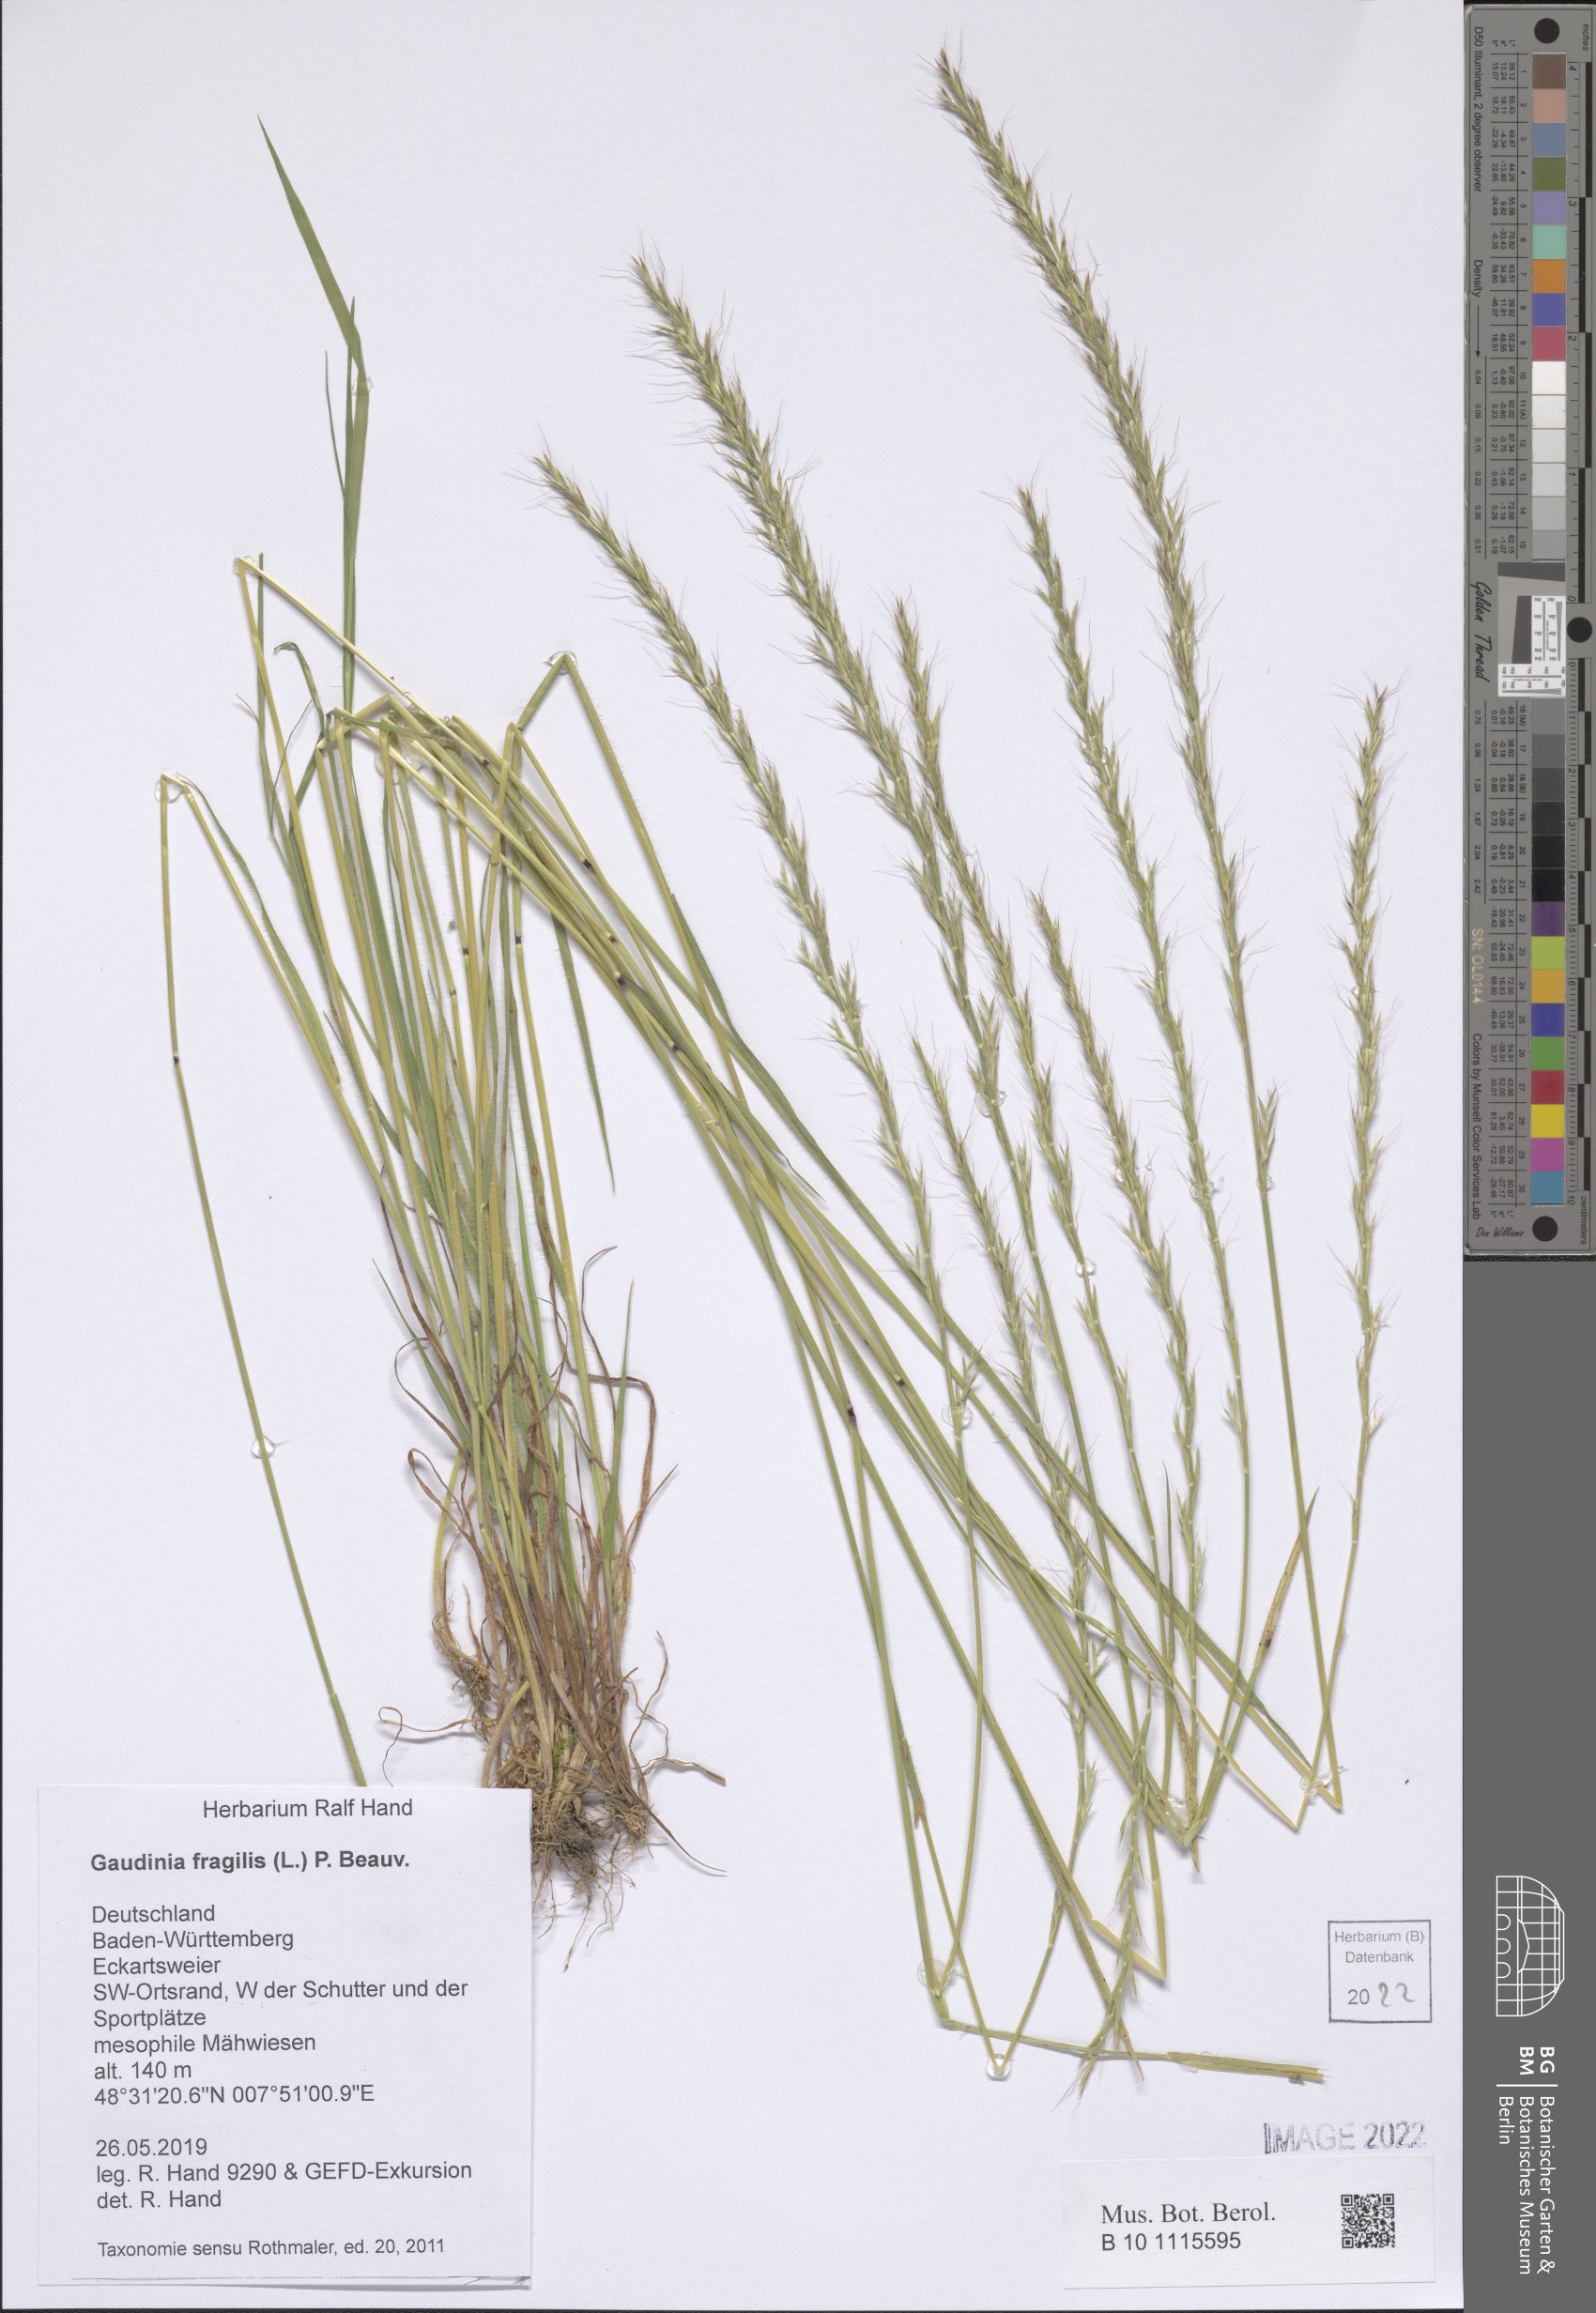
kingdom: Plantae
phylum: Tracheophyta
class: Liliopsida
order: Poales
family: Poaceae
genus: Gaudinia
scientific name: Gaudinia fragilis
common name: French oat-grass
